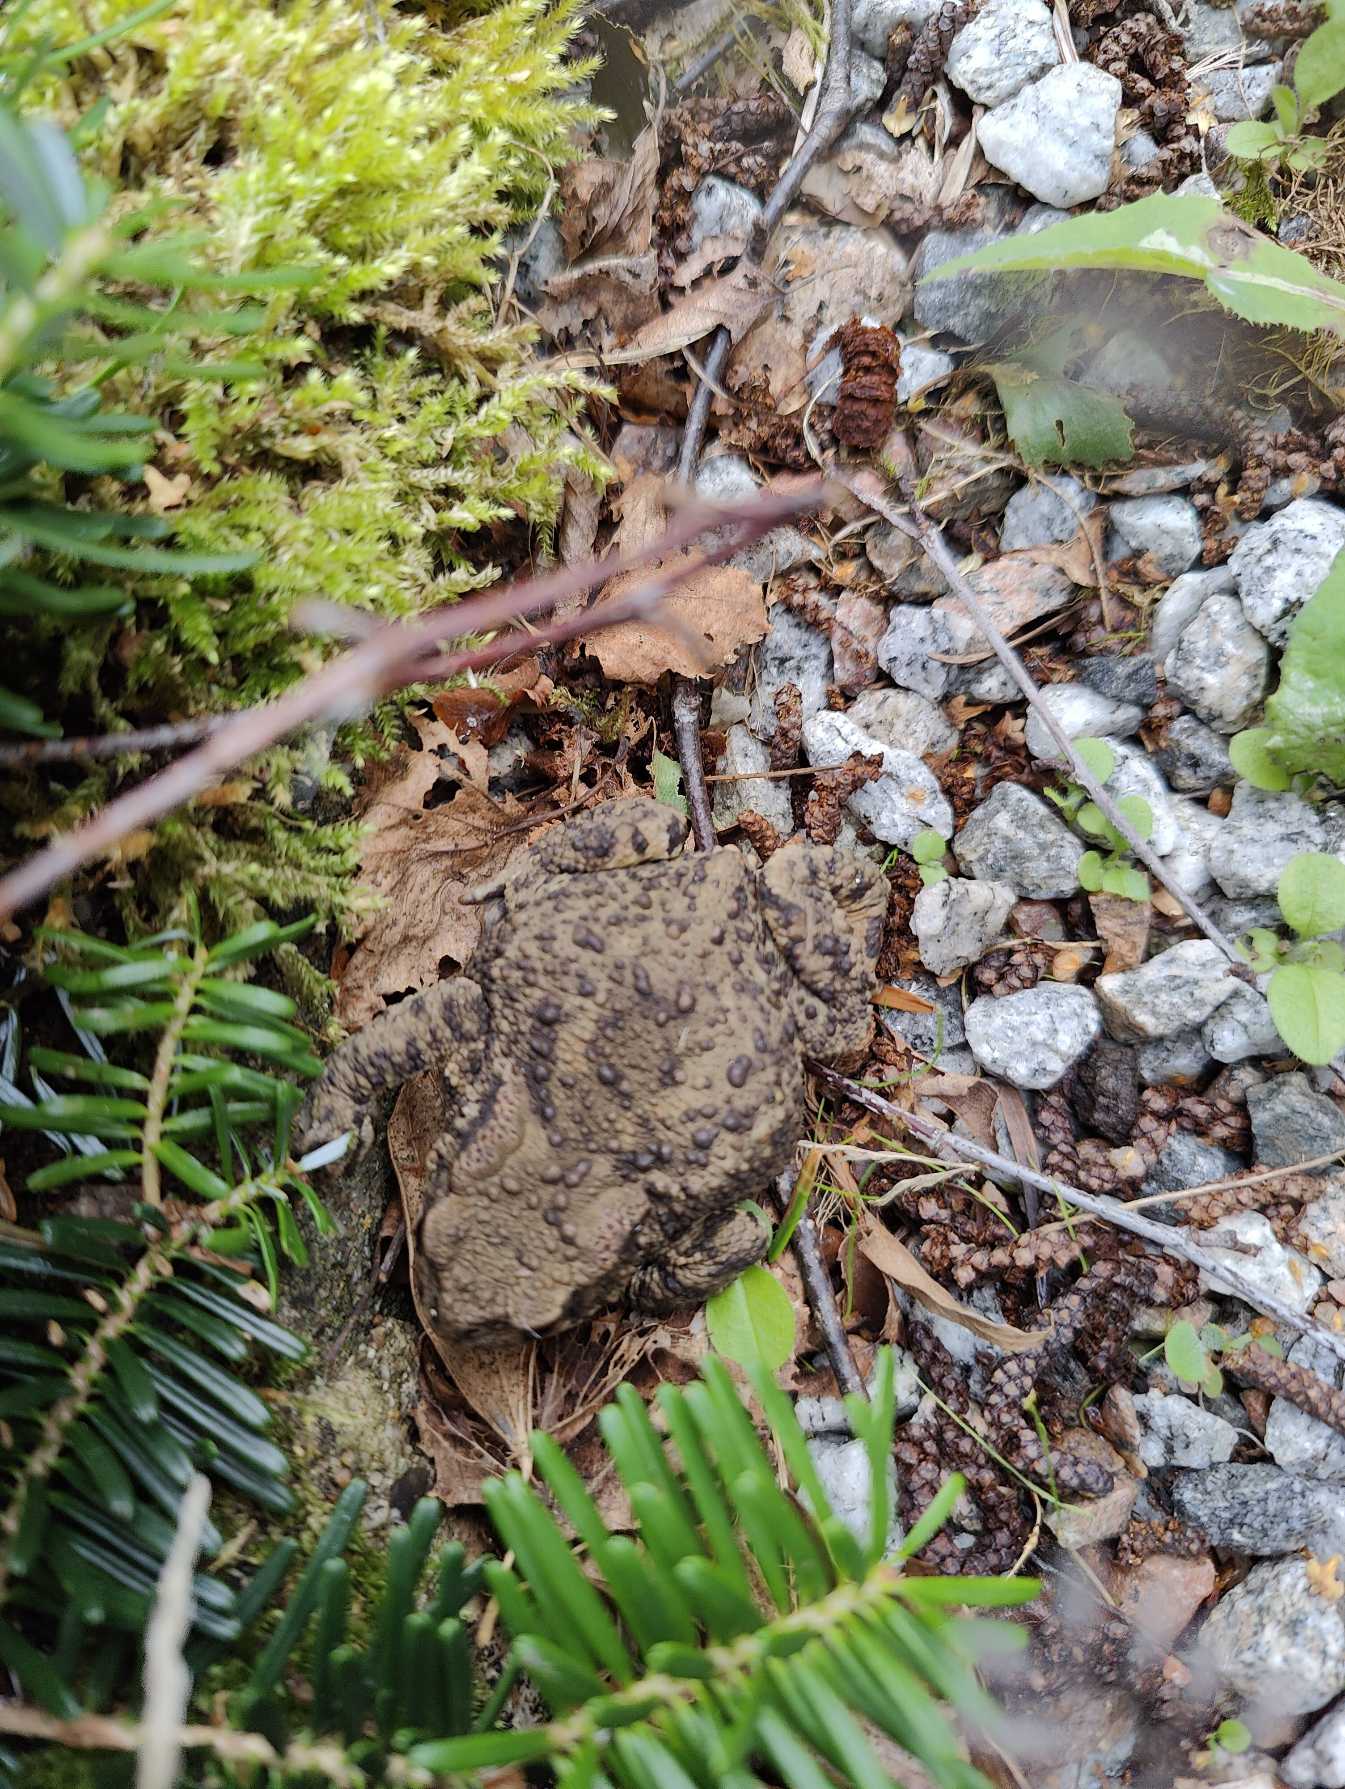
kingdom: Animalia
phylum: Chordata
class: Amphibia
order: Anura
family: Bufonidae
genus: Bufo
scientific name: Bufo bufo
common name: Skrubtudse
